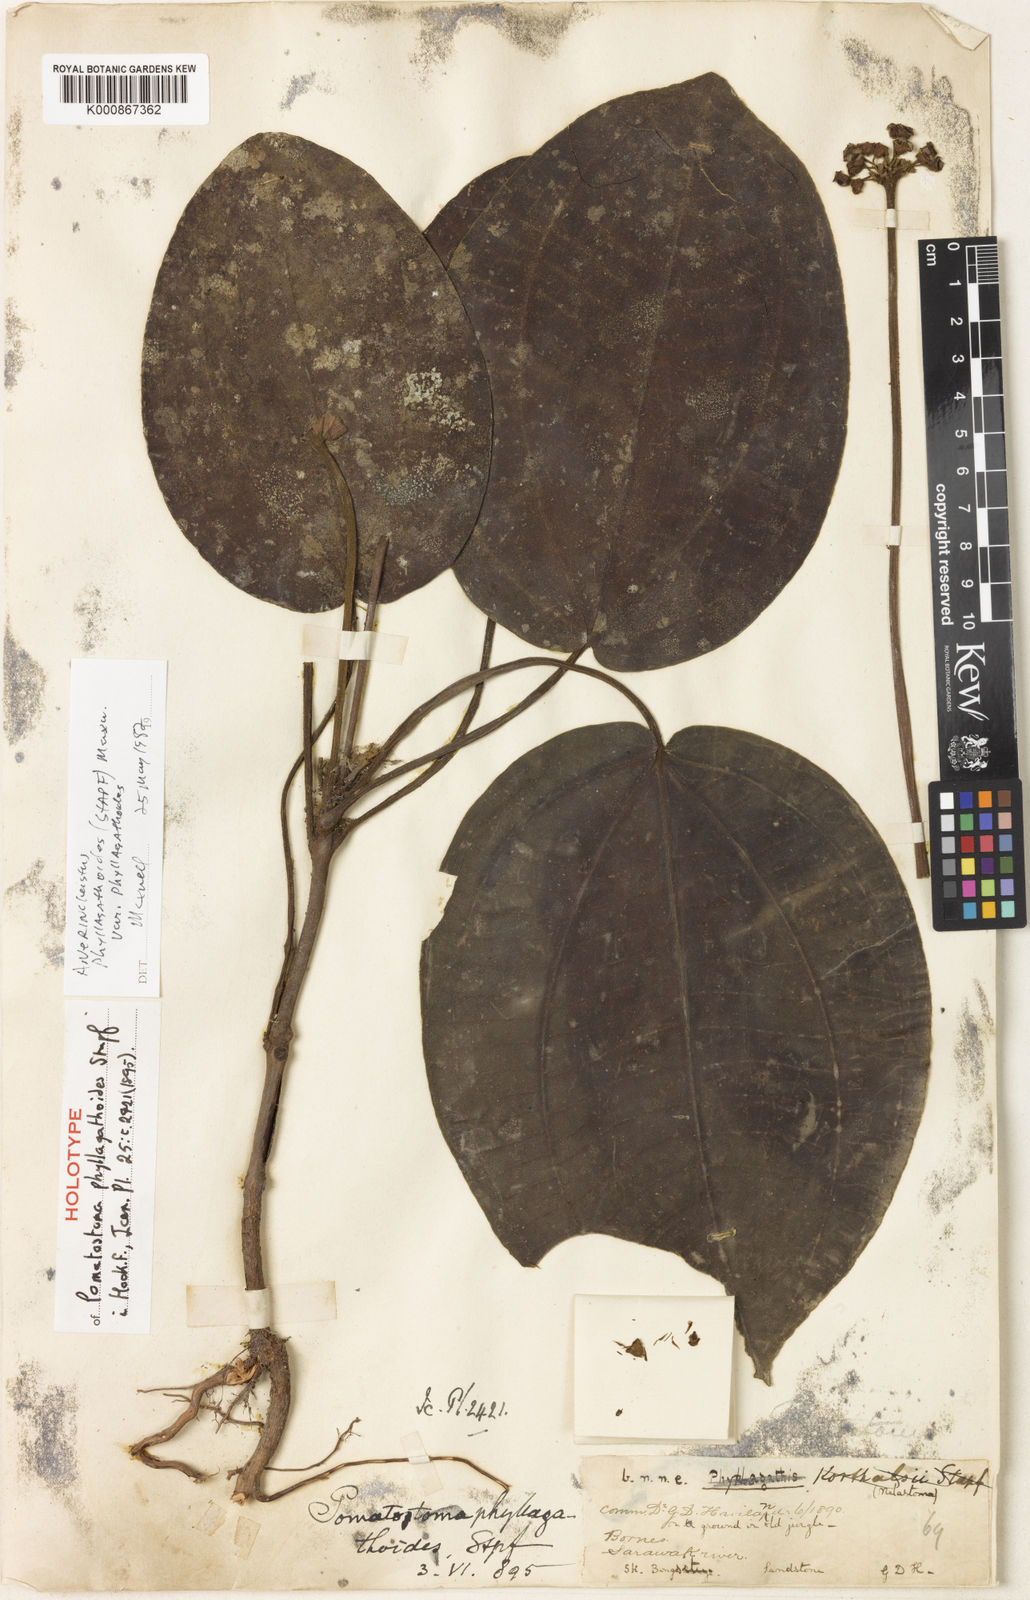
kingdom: Plantae
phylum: Tracheophyta
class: Magnoliopsida
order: Myrtales
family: Melastomataceae
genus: Anerincleistus
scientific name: Anerincleistus phyllagathoides
